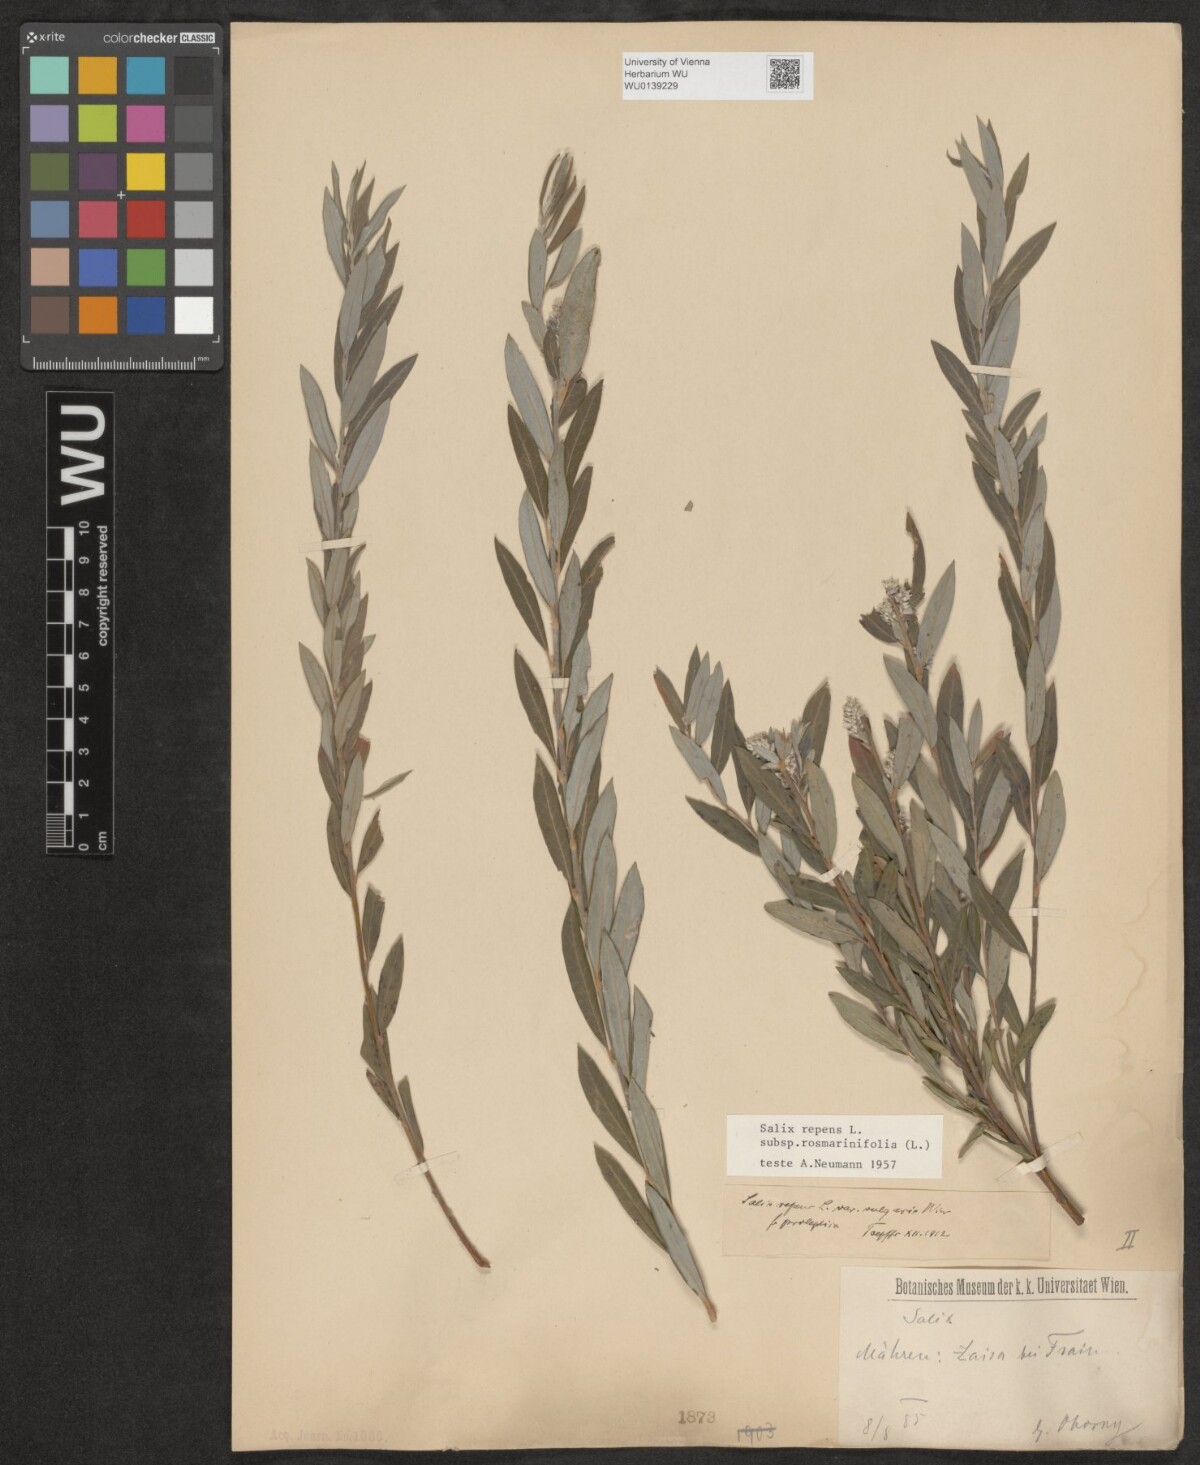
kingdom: Plantae
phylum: Tracheophyta
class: Magnoliopsida
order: Malpighiales
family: Salicaceae
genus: Salix
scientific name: Salix repens
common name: Creeping willow
